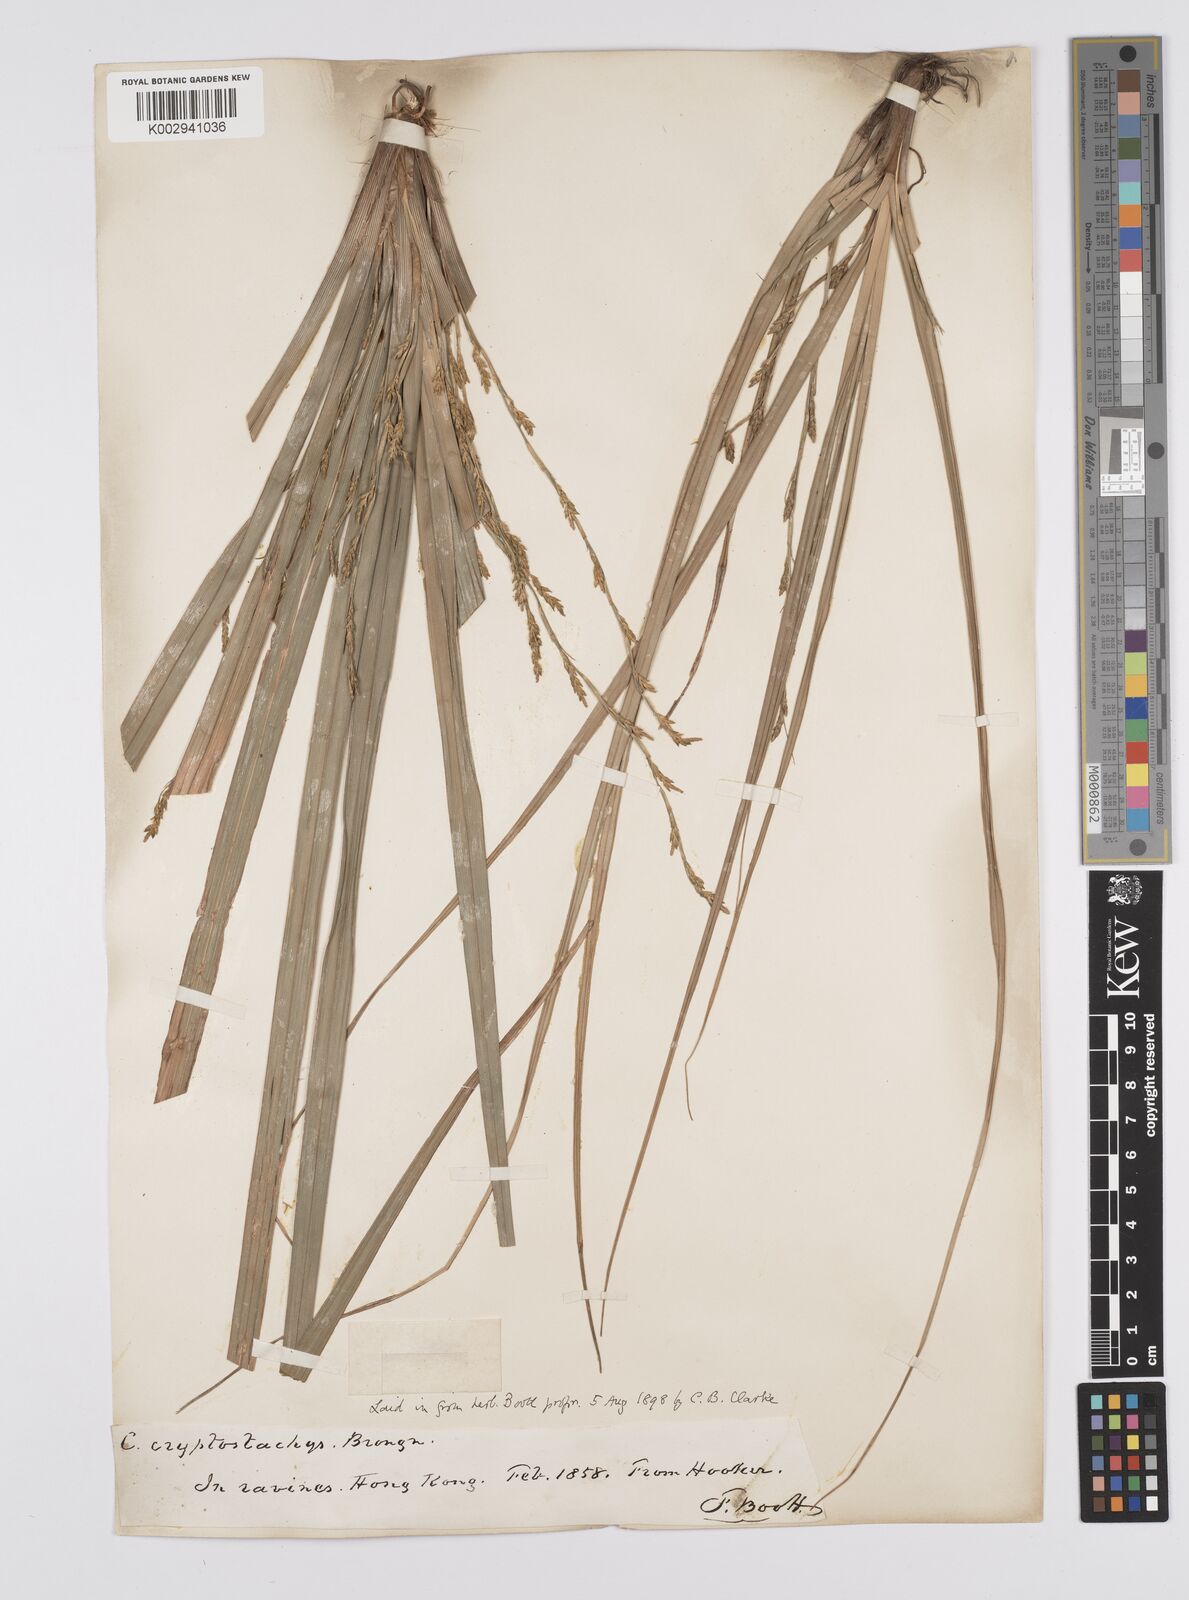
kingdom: Plantae
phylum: Tracheophyta
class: Liliopsida
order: Poales
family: Cyperaceae
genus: Carex
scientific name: Carex cryptostachys
